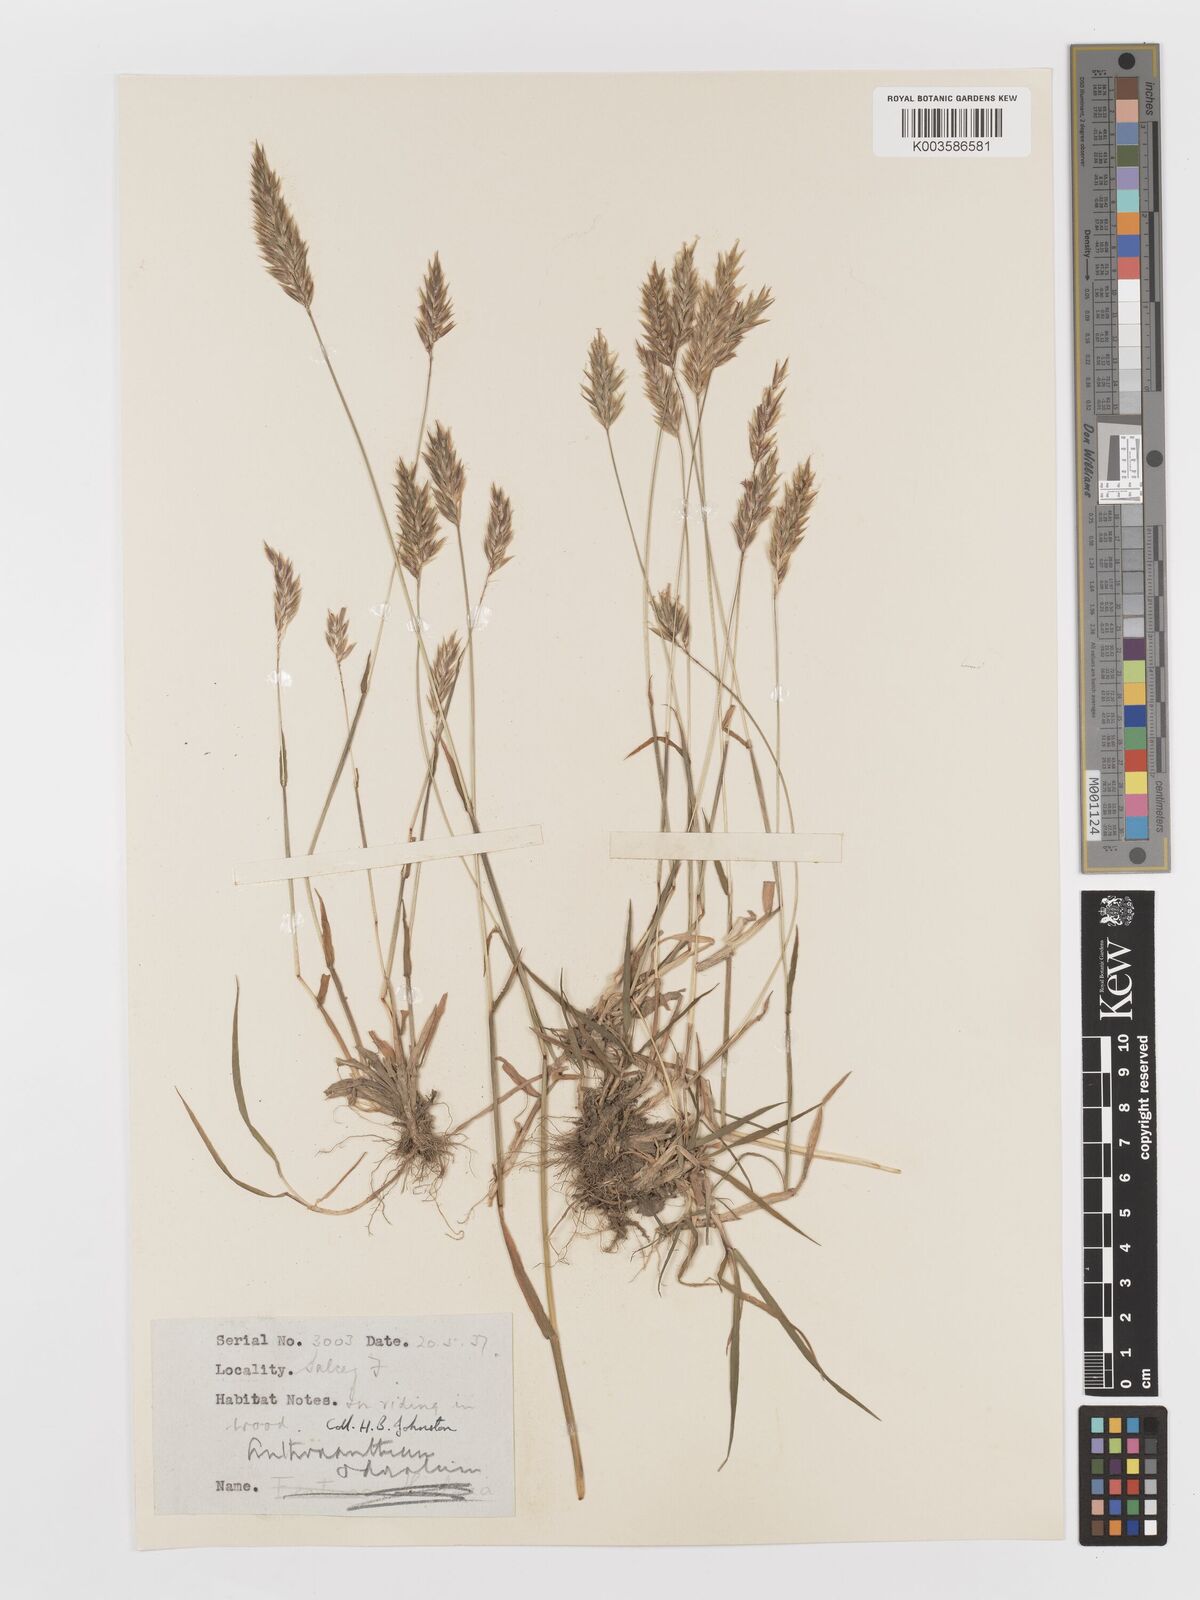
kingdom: Plantae
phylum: Tracheophyta
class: Liliopsida
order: Poales
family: Poaceae
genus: Anthoxanthum
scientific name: Anthoxanthum odoratum
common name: Sweet vernalgrass
